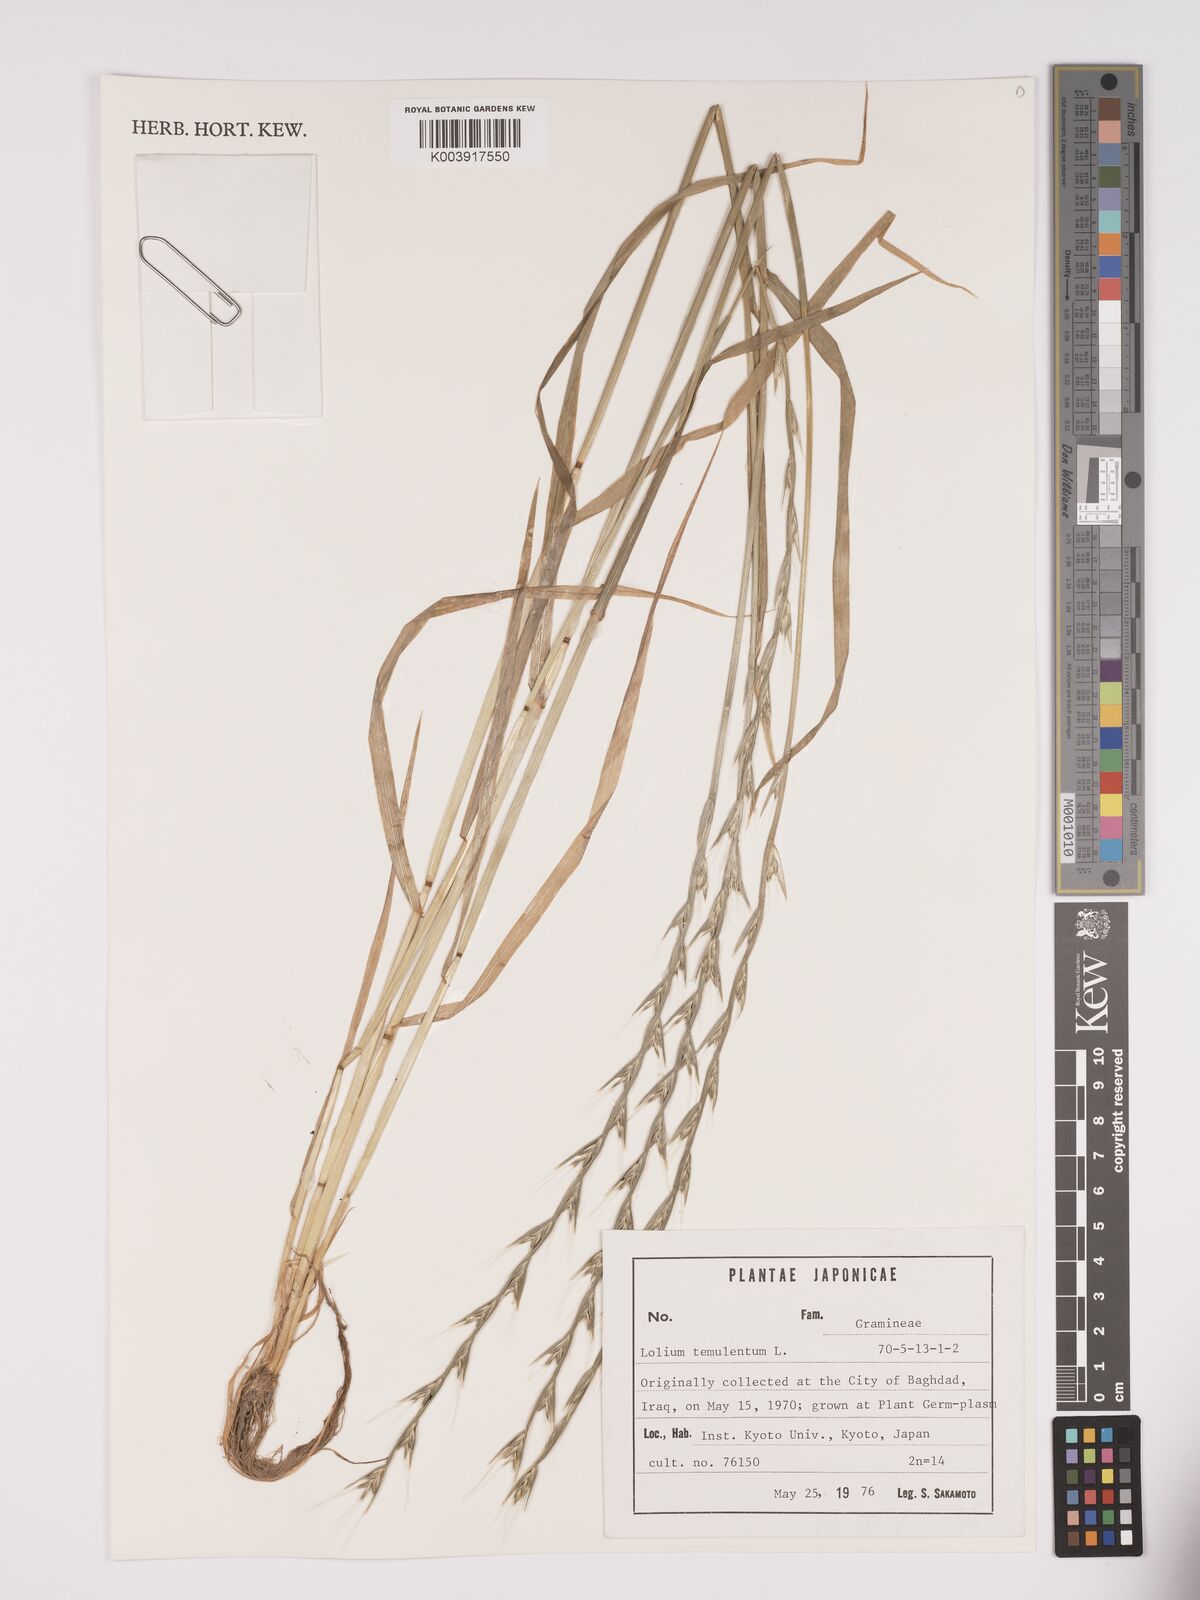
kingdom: Plantae
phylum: Tracheophyta
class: Liliopsida
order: Poales
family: Poaceae
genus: Lolium
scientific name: Lolium temulentum
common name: Darnel
